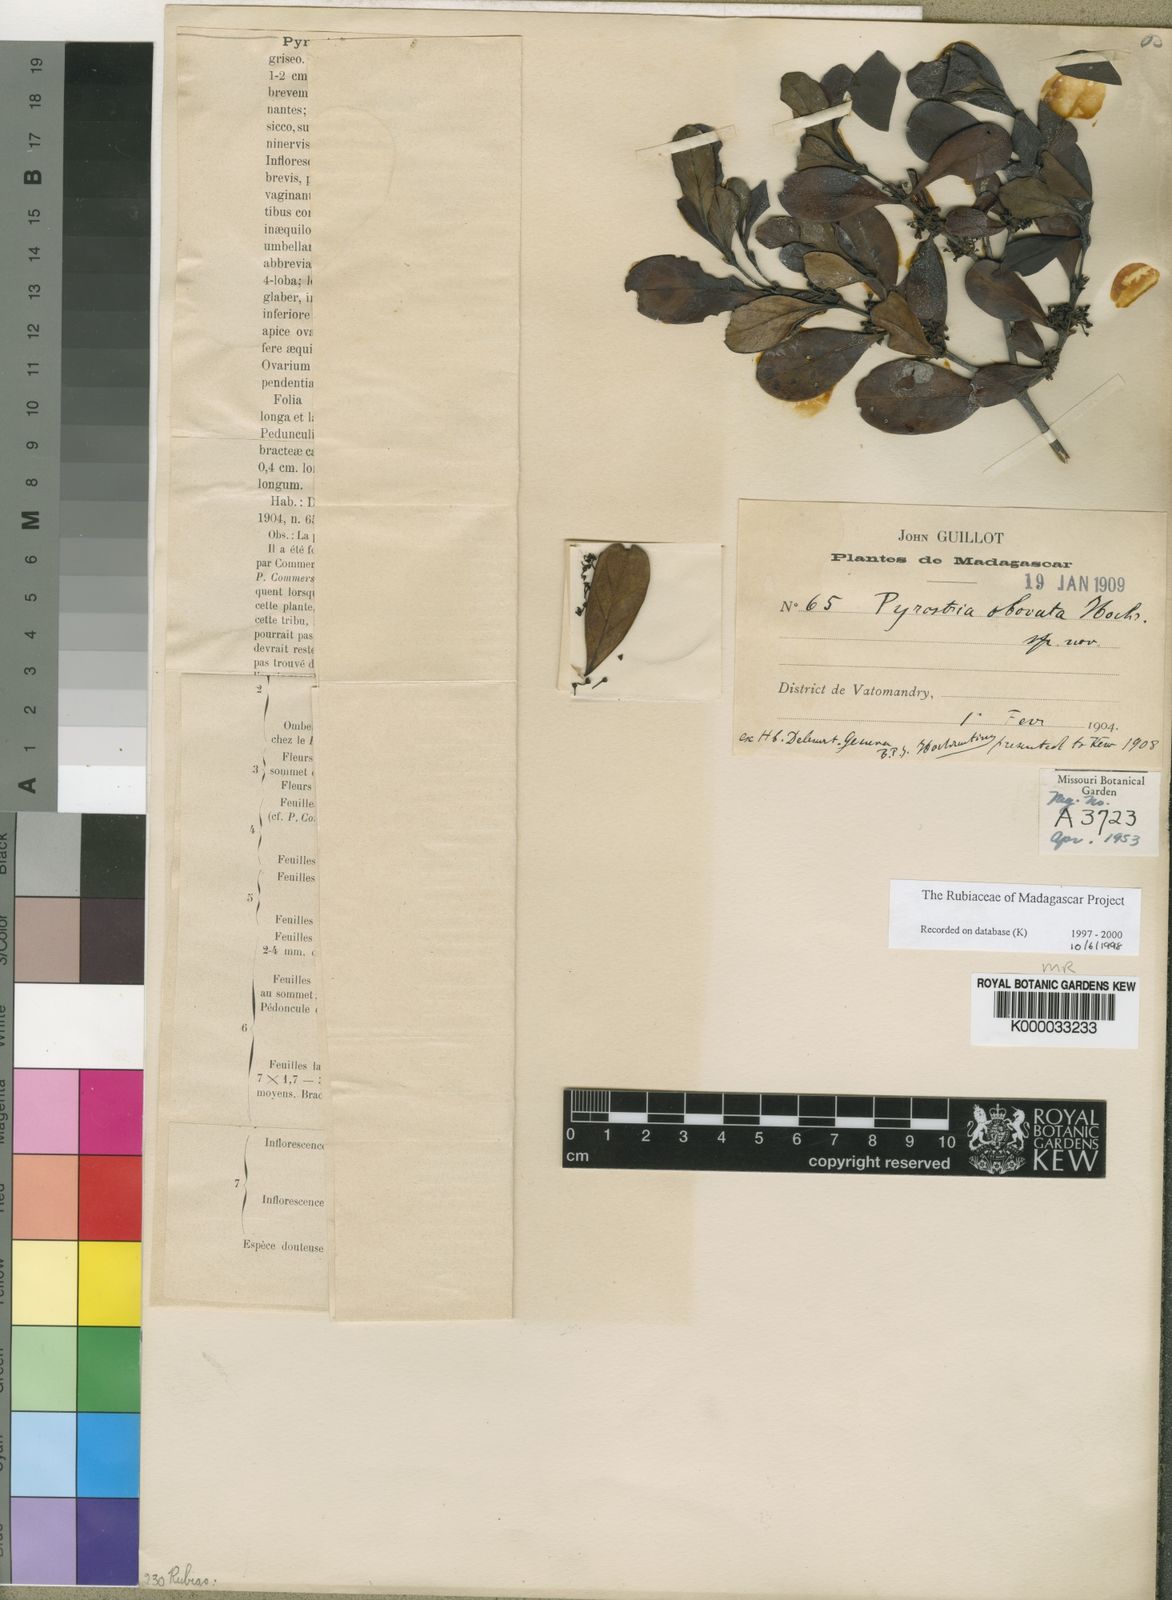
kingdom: Plantae
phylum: Tracheophyta
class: Magnoliopsida
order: Gentianales
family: Rubiaceae
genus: Pyrostria
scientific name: Pyrostria
